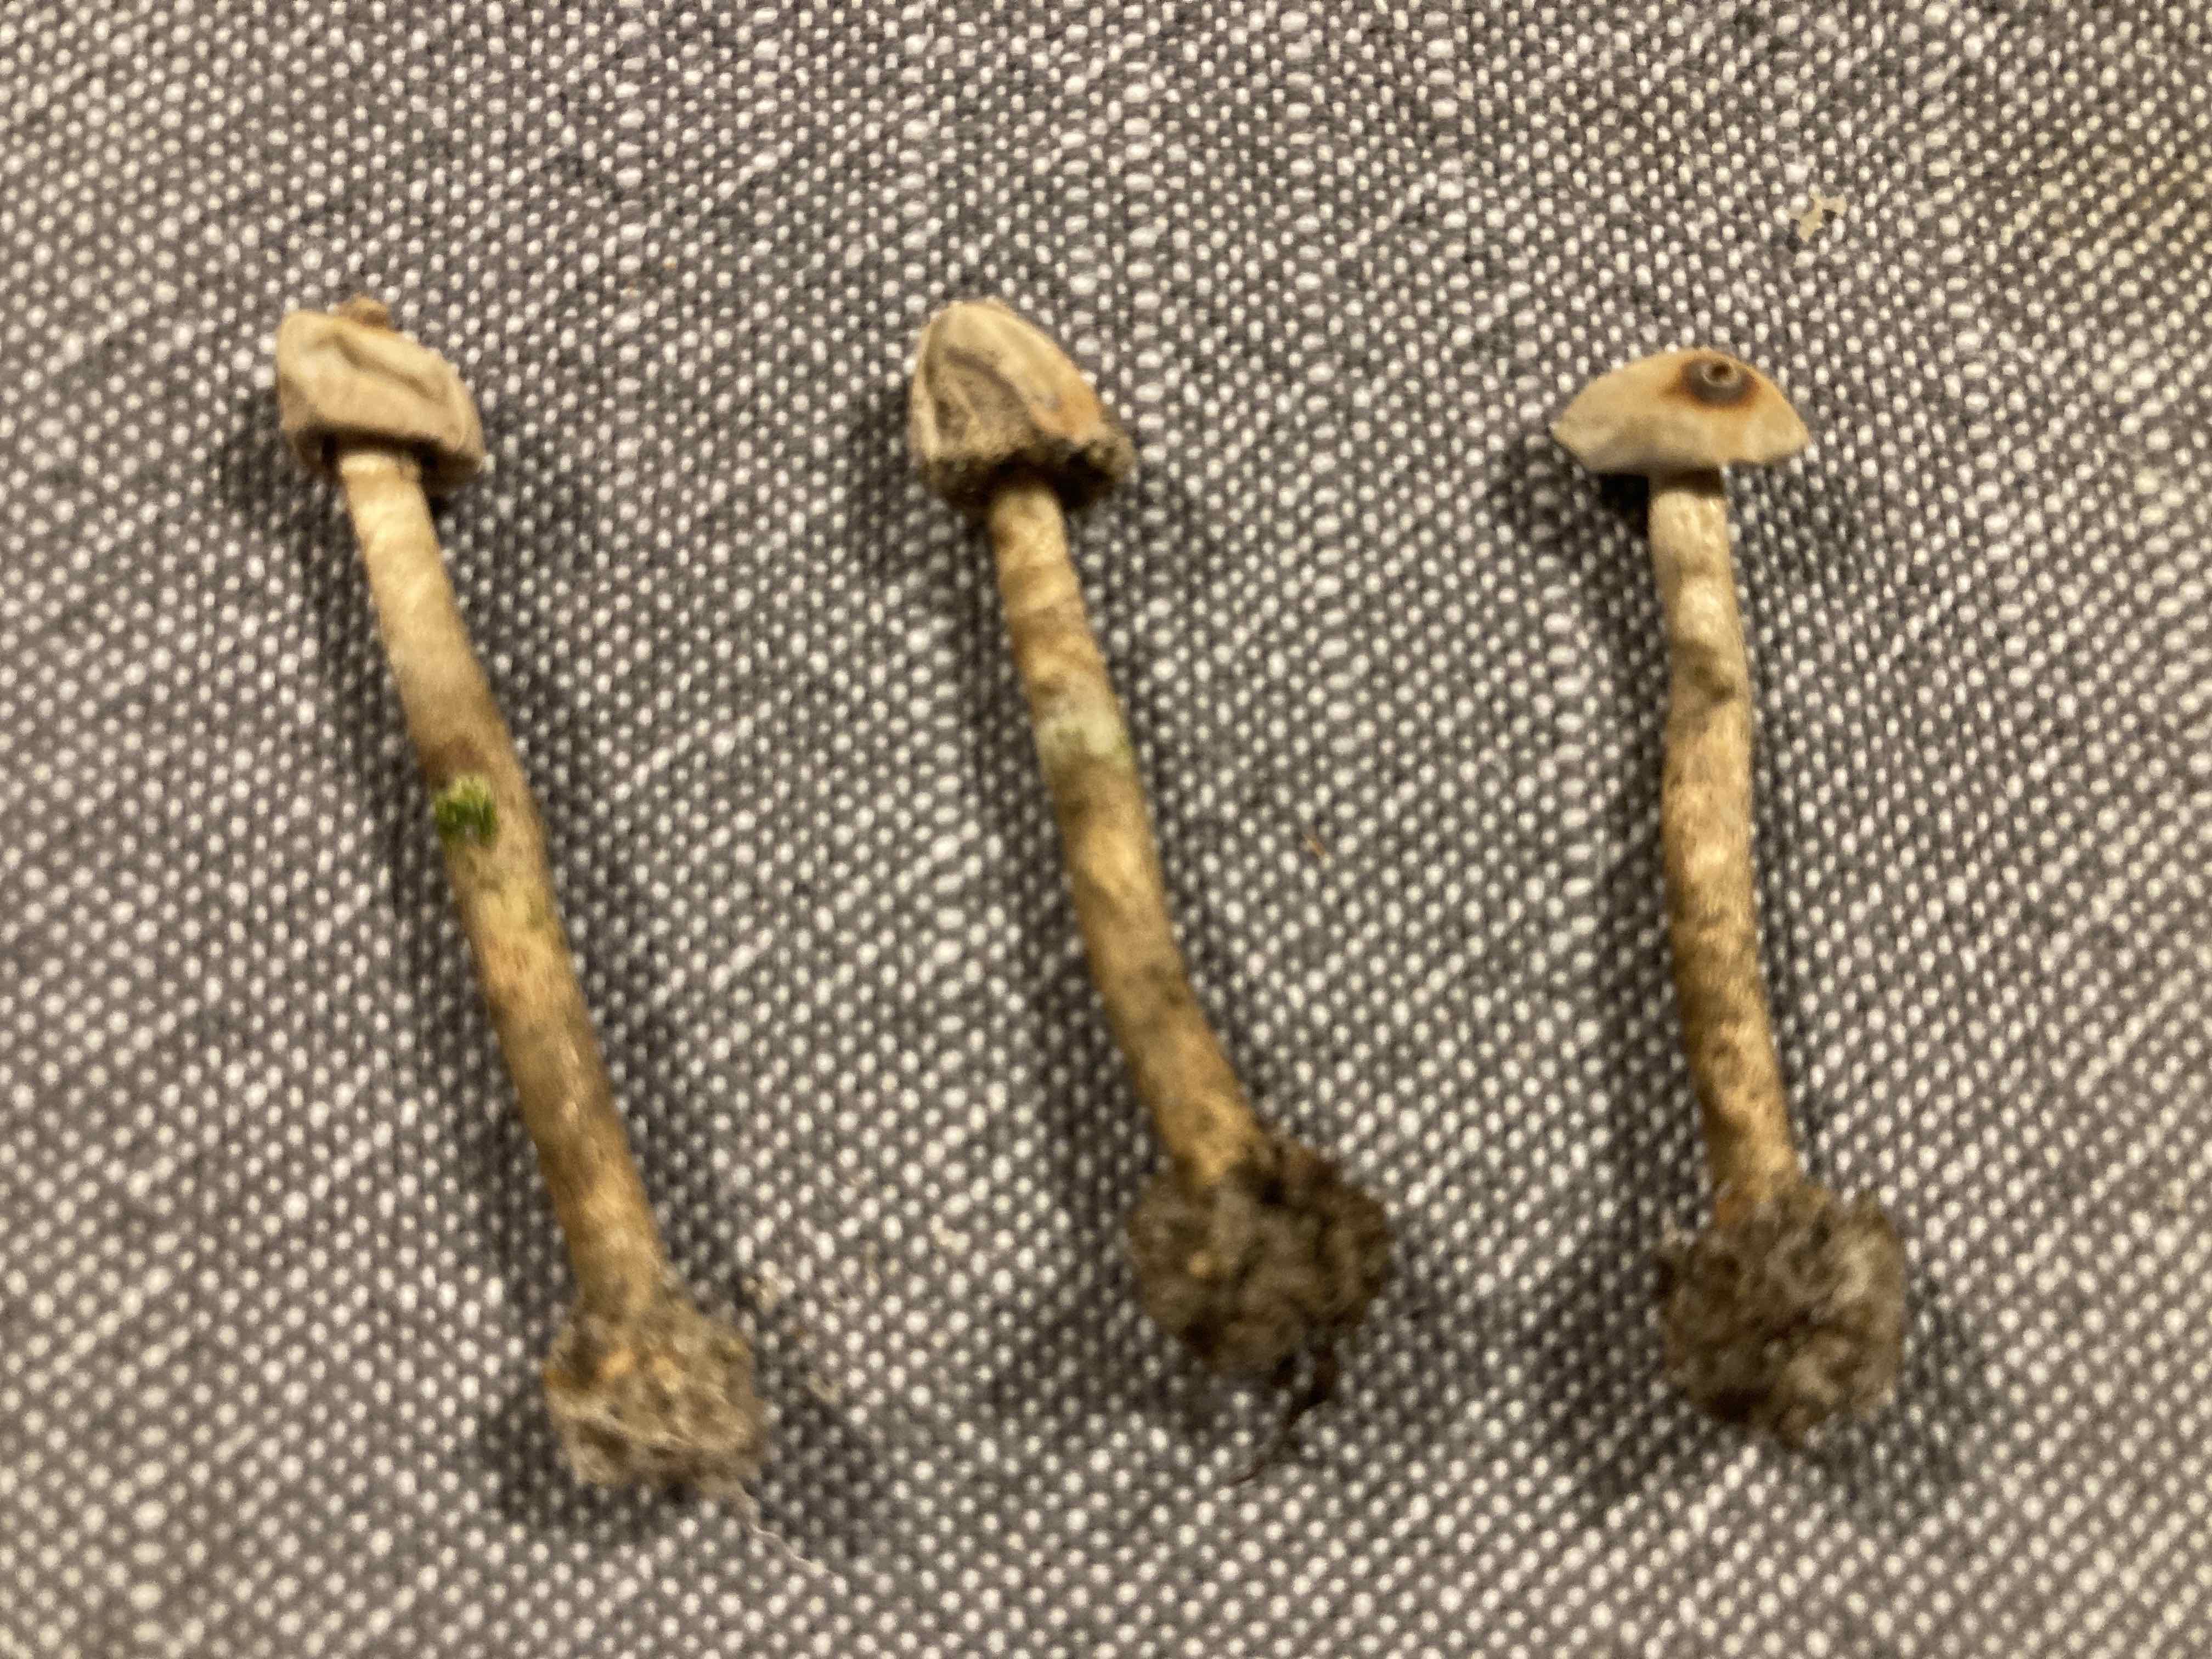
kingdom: Fungi
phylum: Basidiomycota
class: Agaricomycetes
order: Agaricales
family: Agaricaceae
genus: Tulostoma
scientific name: Tulostoma brumale
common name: vinter-stilkbovist
